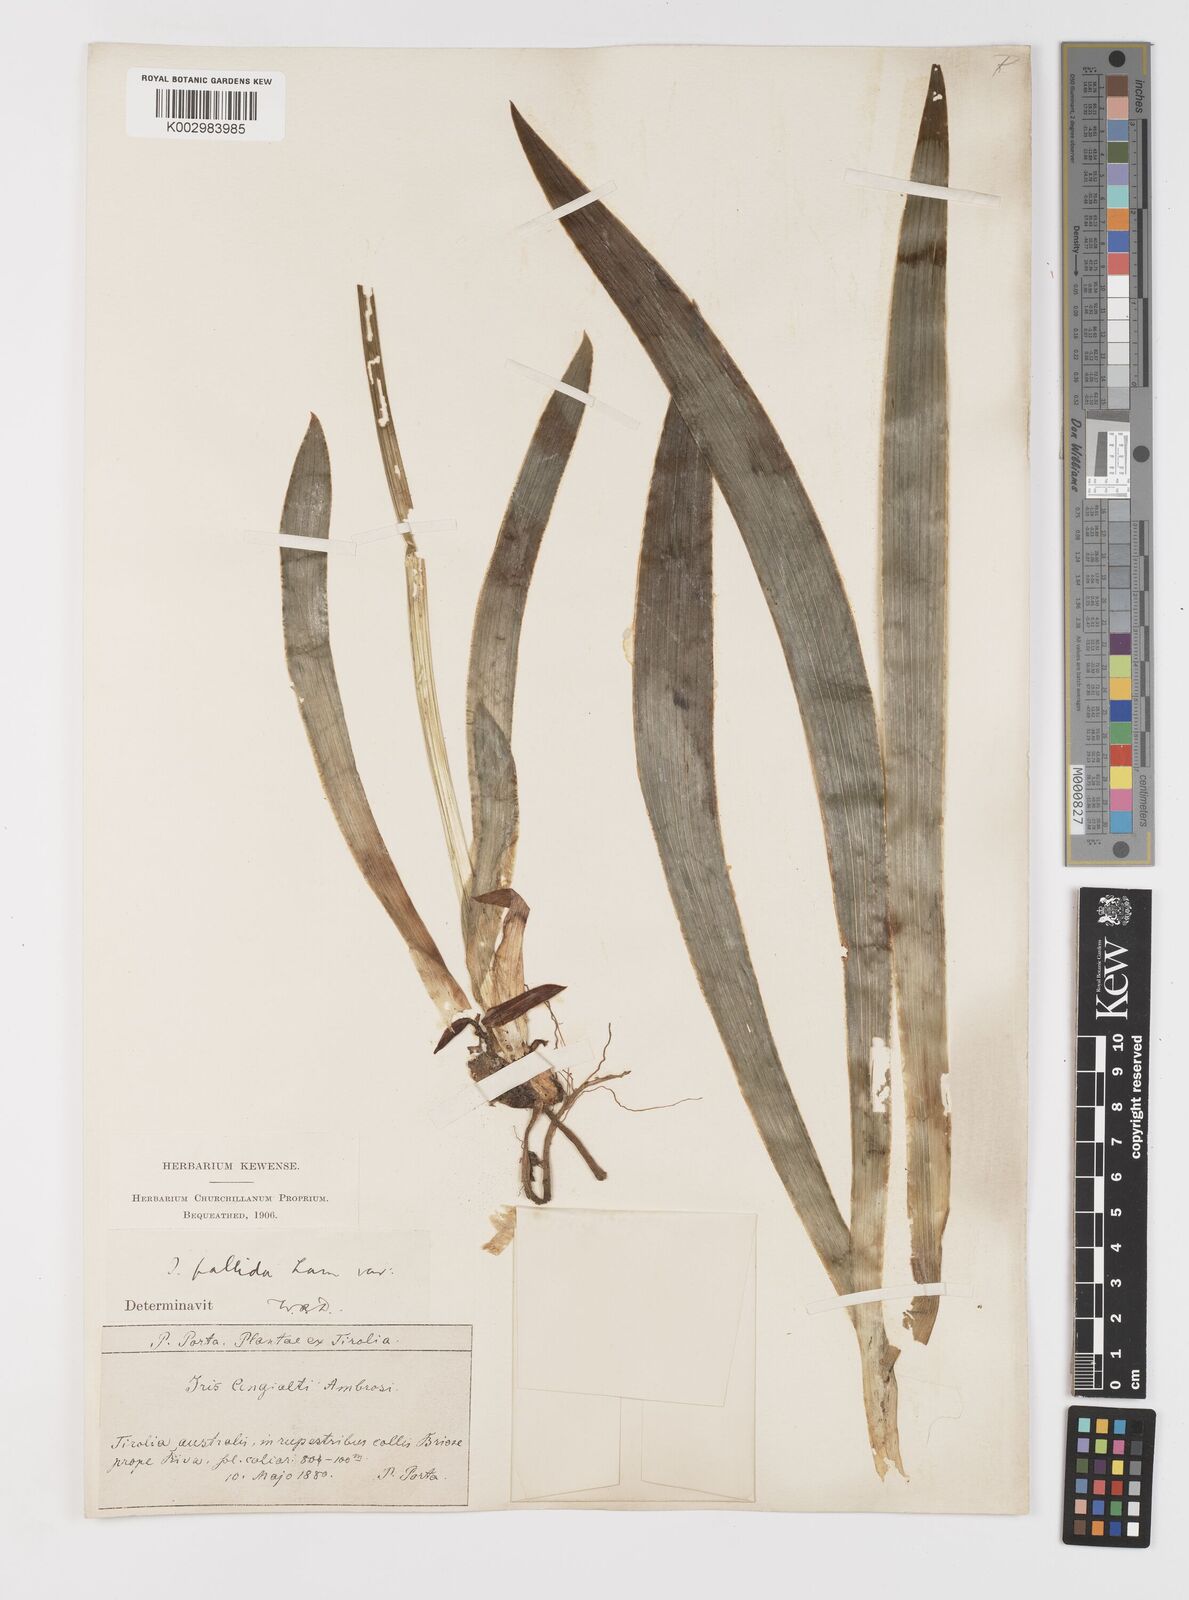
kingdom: Plantae
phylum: Tracheophyta
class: Liliopsida
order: Asparagales
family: Iridaceae
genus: Iris
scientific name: Iris halophila
